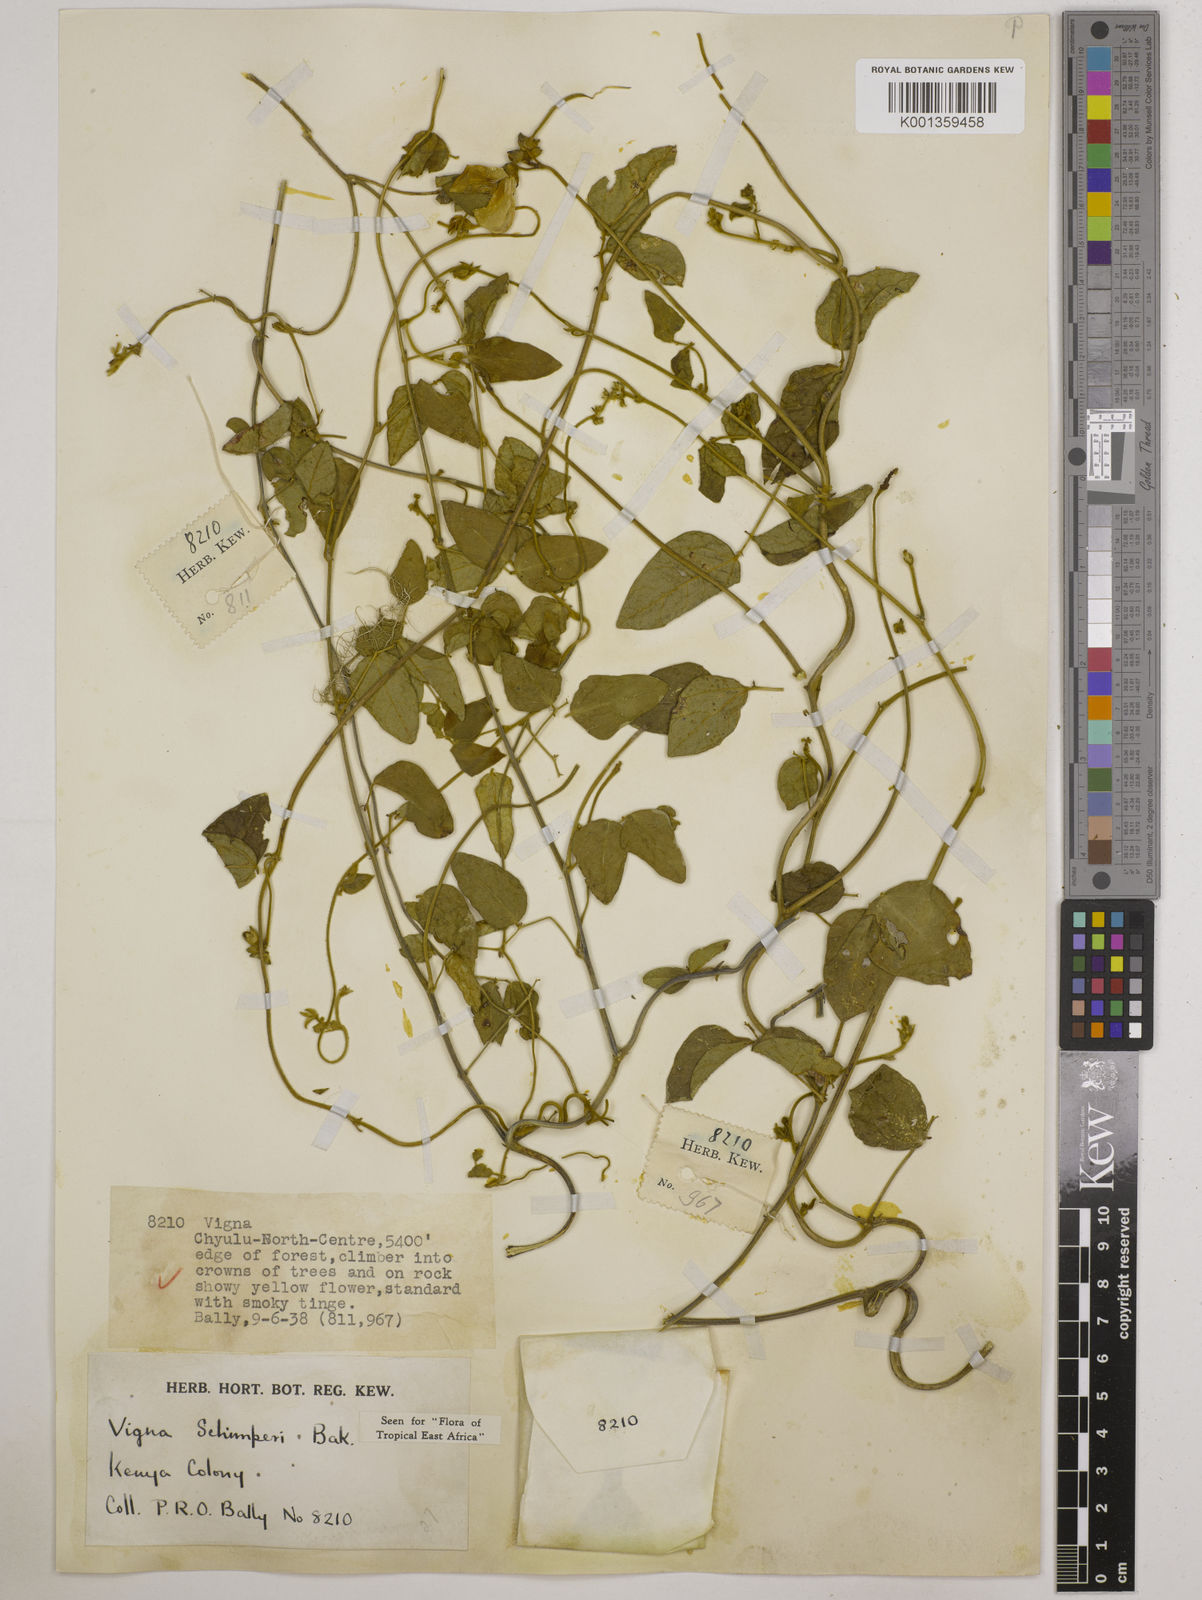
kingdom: Plantae
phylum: Tracheophyta
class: Magnoliopsida
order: Fabales
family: Fabaceae
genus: Vigna
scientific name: Vigna schimperi
